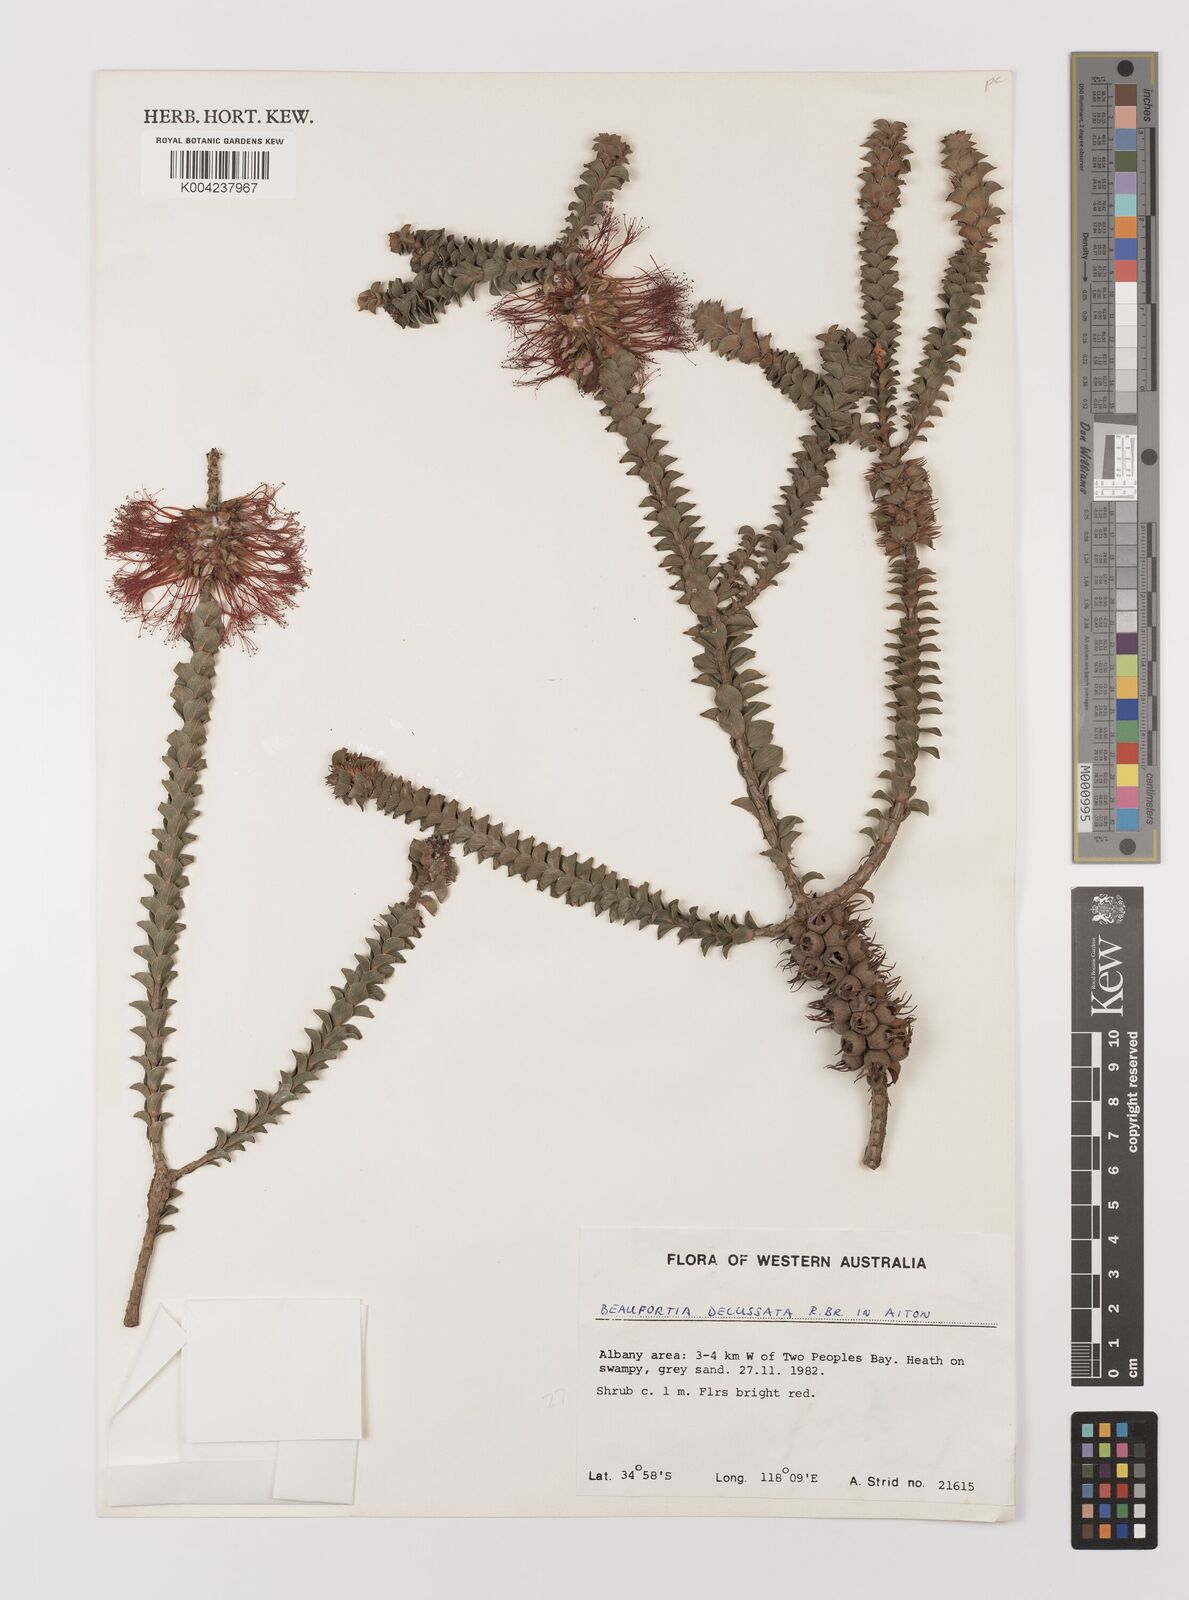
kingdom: Plantae
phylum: Tracheophyta
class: Magnoliopsida
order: Myrtales
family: Myrtaceae
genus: Melaleuca
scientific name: Melaleuca transversa
